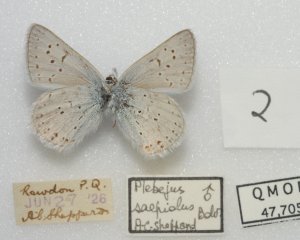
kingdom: Animalia
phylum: Arthropoda
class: Insecta
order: Lepidoptera
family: Lycaenidae
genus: Plebejus
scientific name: Plebejus saepiolus
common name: Greenish Blue
